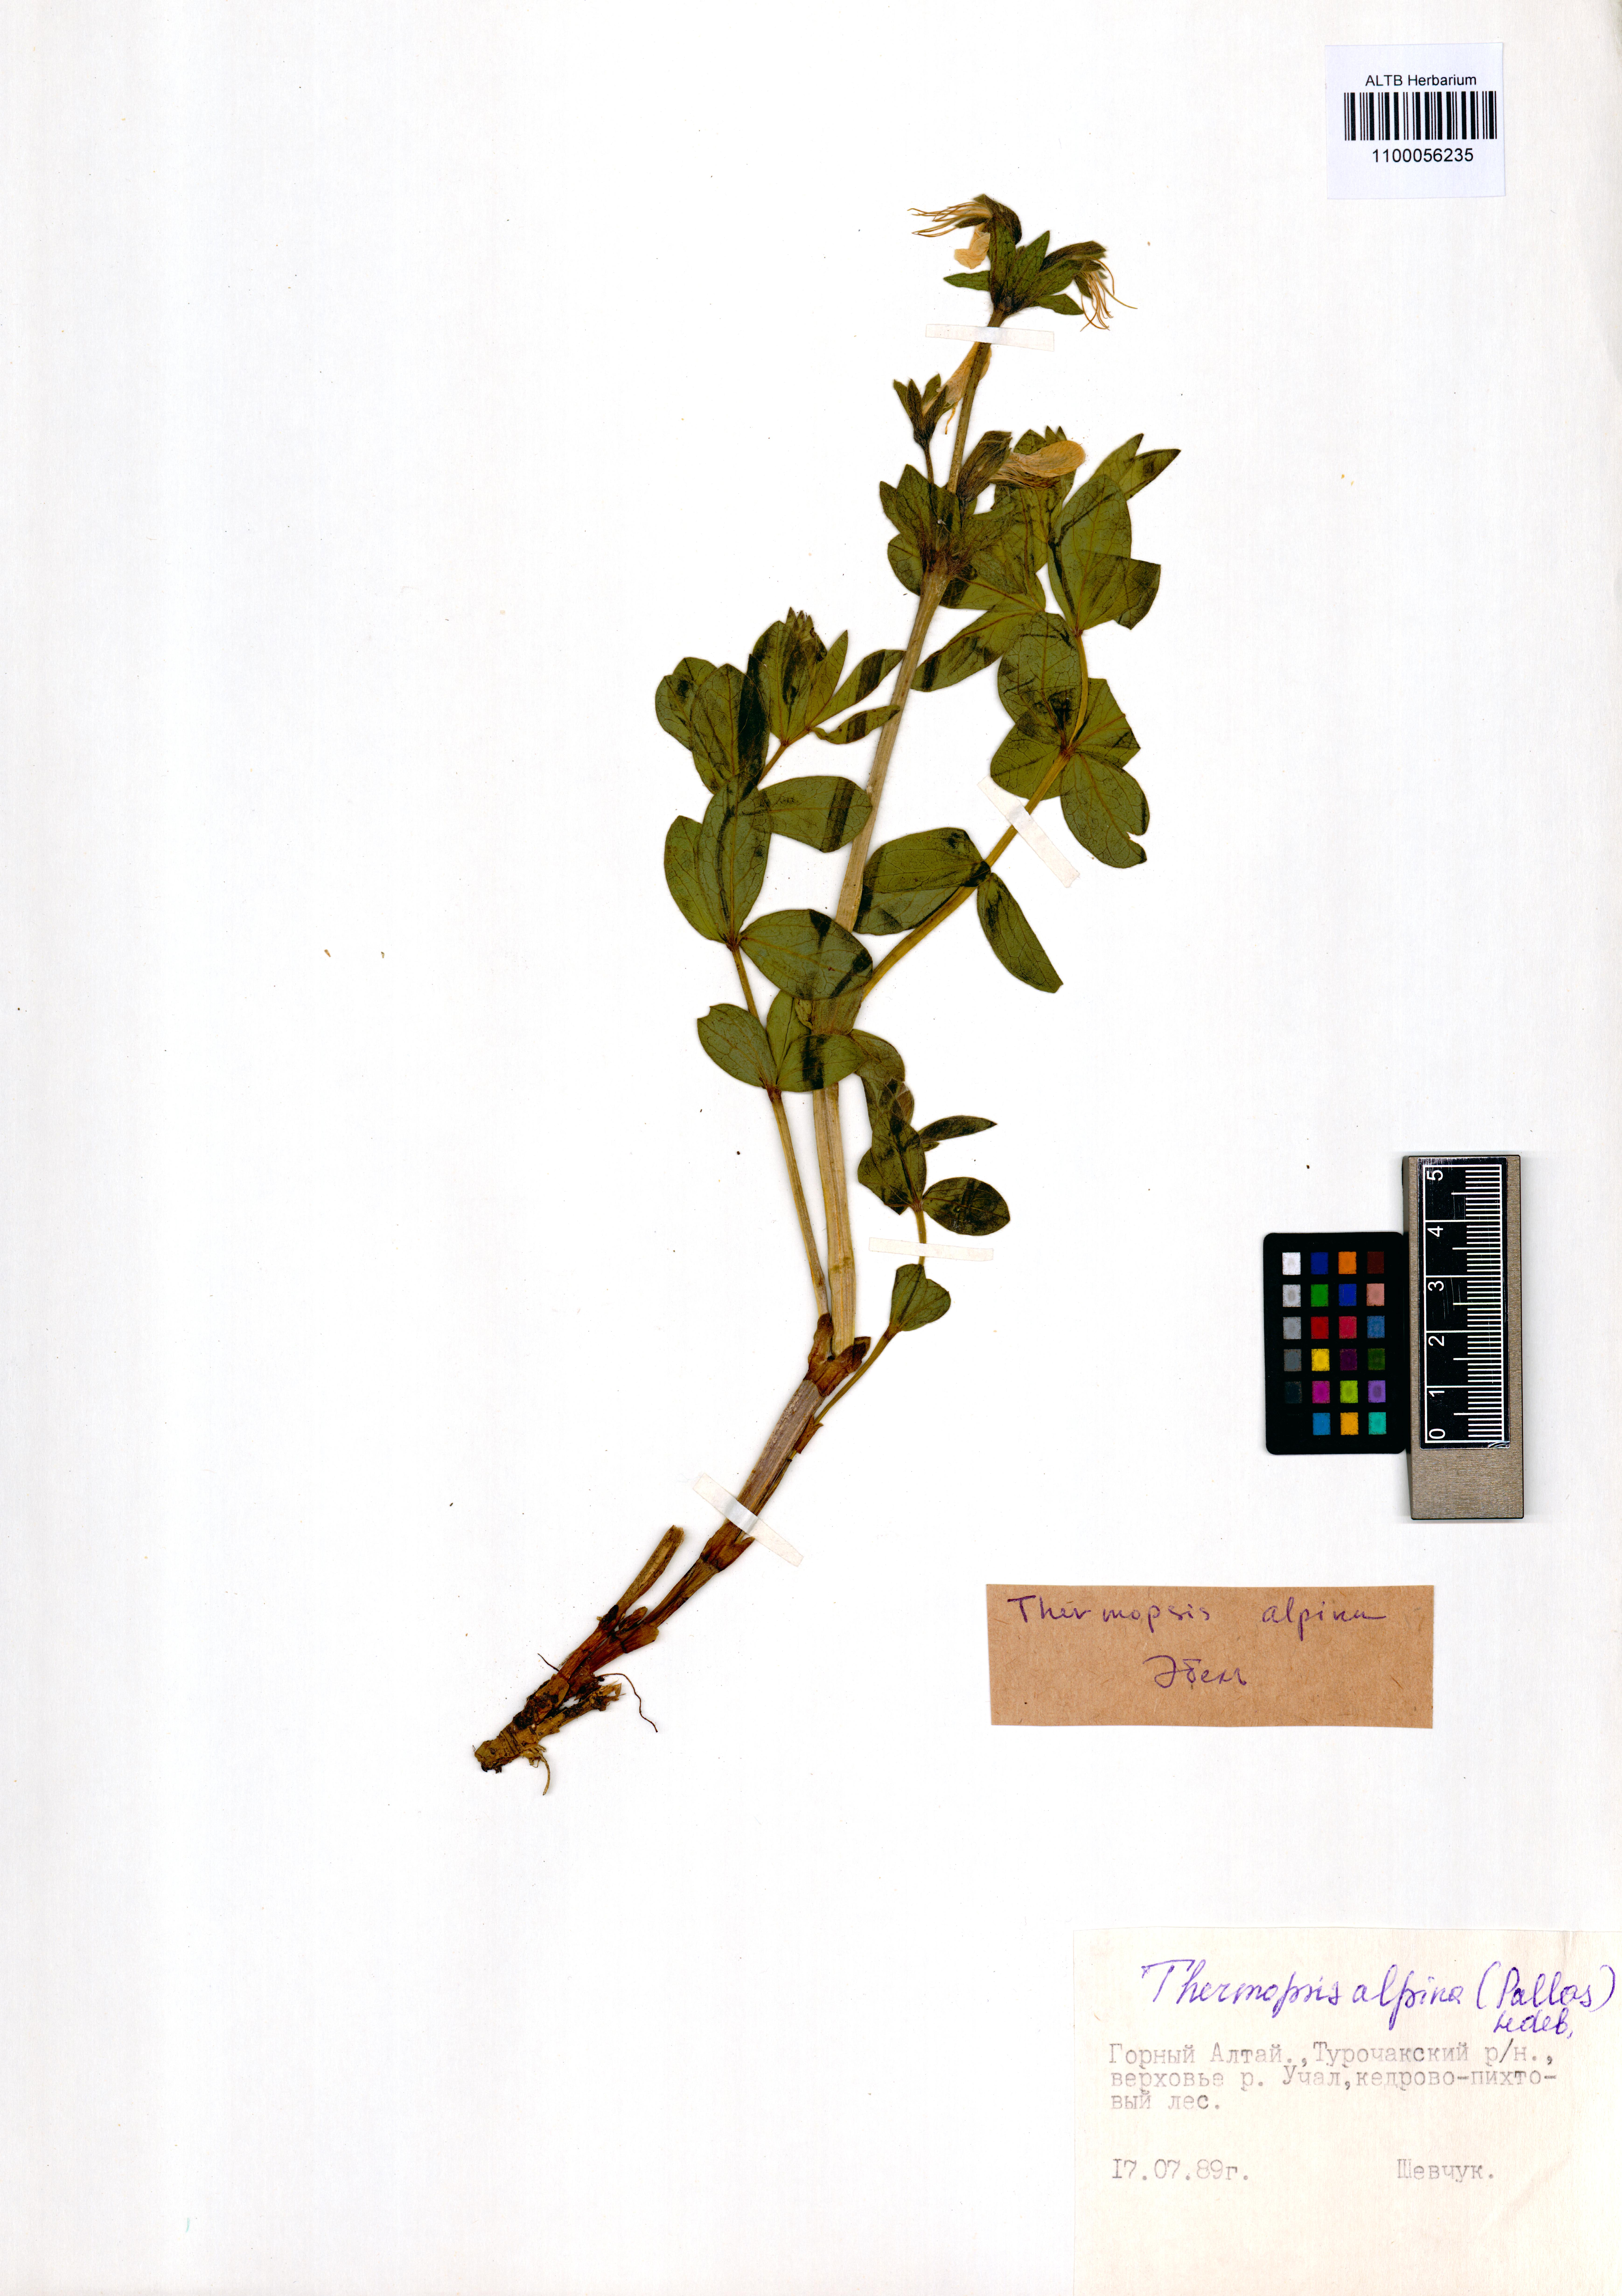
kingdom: Plantae
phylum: Tracheophyta
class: Magnoliopsida
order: Fabales
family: Fabaceae
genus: Thermopsis
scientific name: Thermopsis alpina
